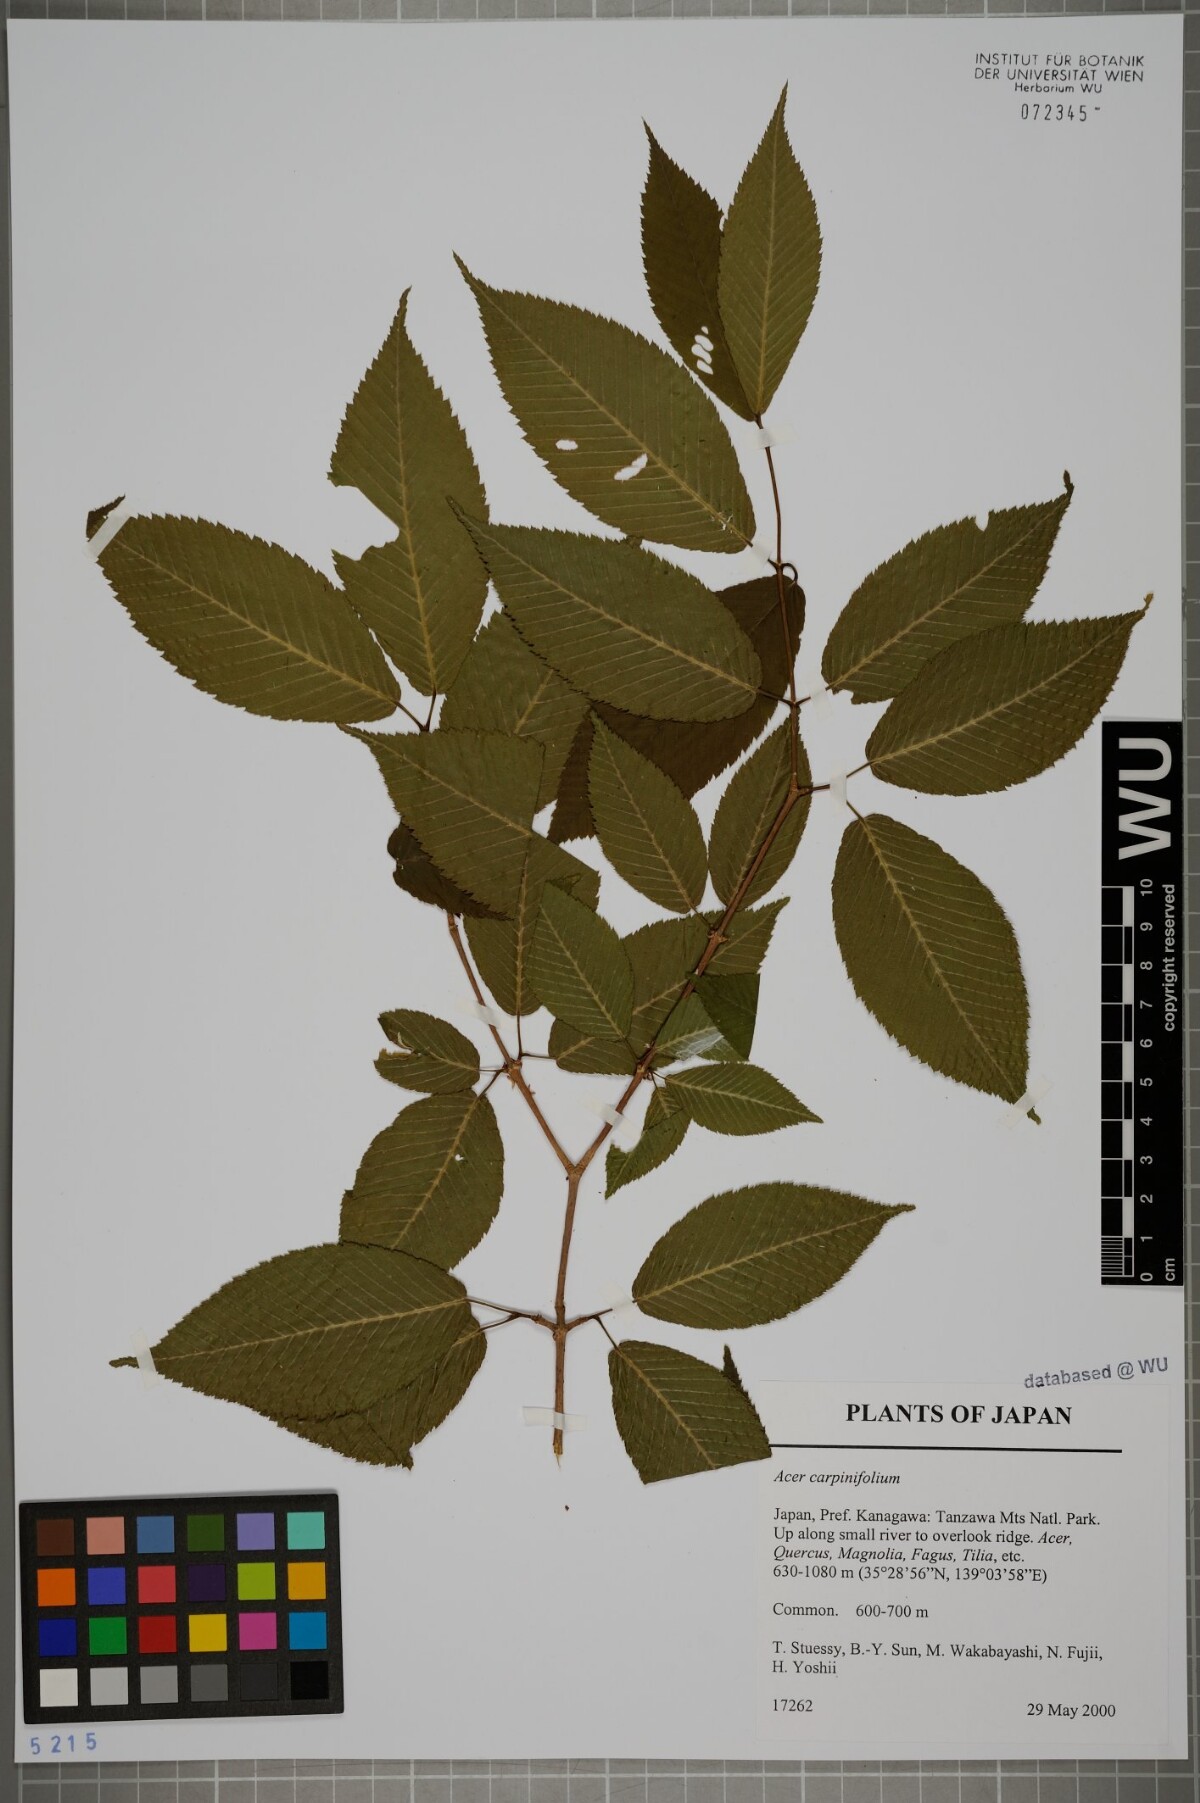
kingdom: Plantae
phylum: Tracheophyta
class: Magnoliopsida
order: Sapindales
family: Sapindaceae
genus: Acer
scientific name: Acer carpinifolium
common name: Hornbeam maple
